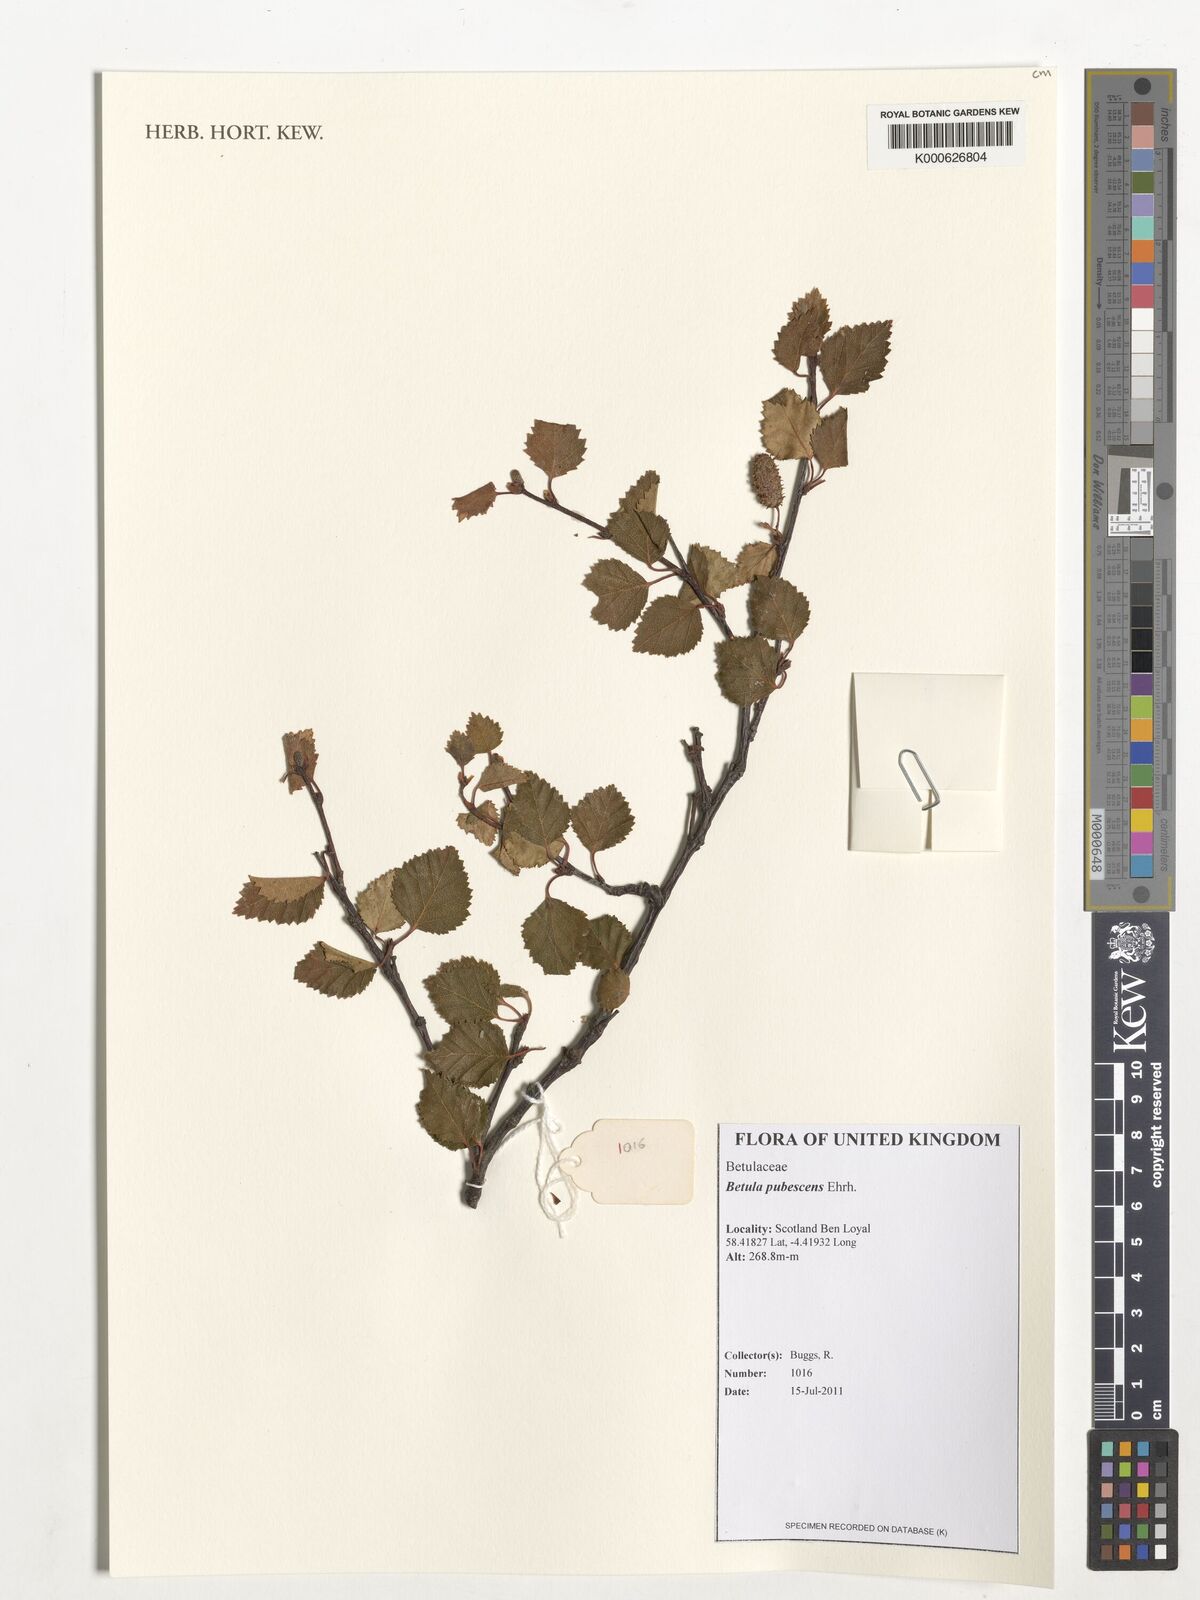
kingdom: Plantae
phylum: Tracheophyta
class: Magnoliopsida
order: Fagales
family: Betulaceae
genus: Betula
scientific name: Betula pubescens
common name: Downy birch
